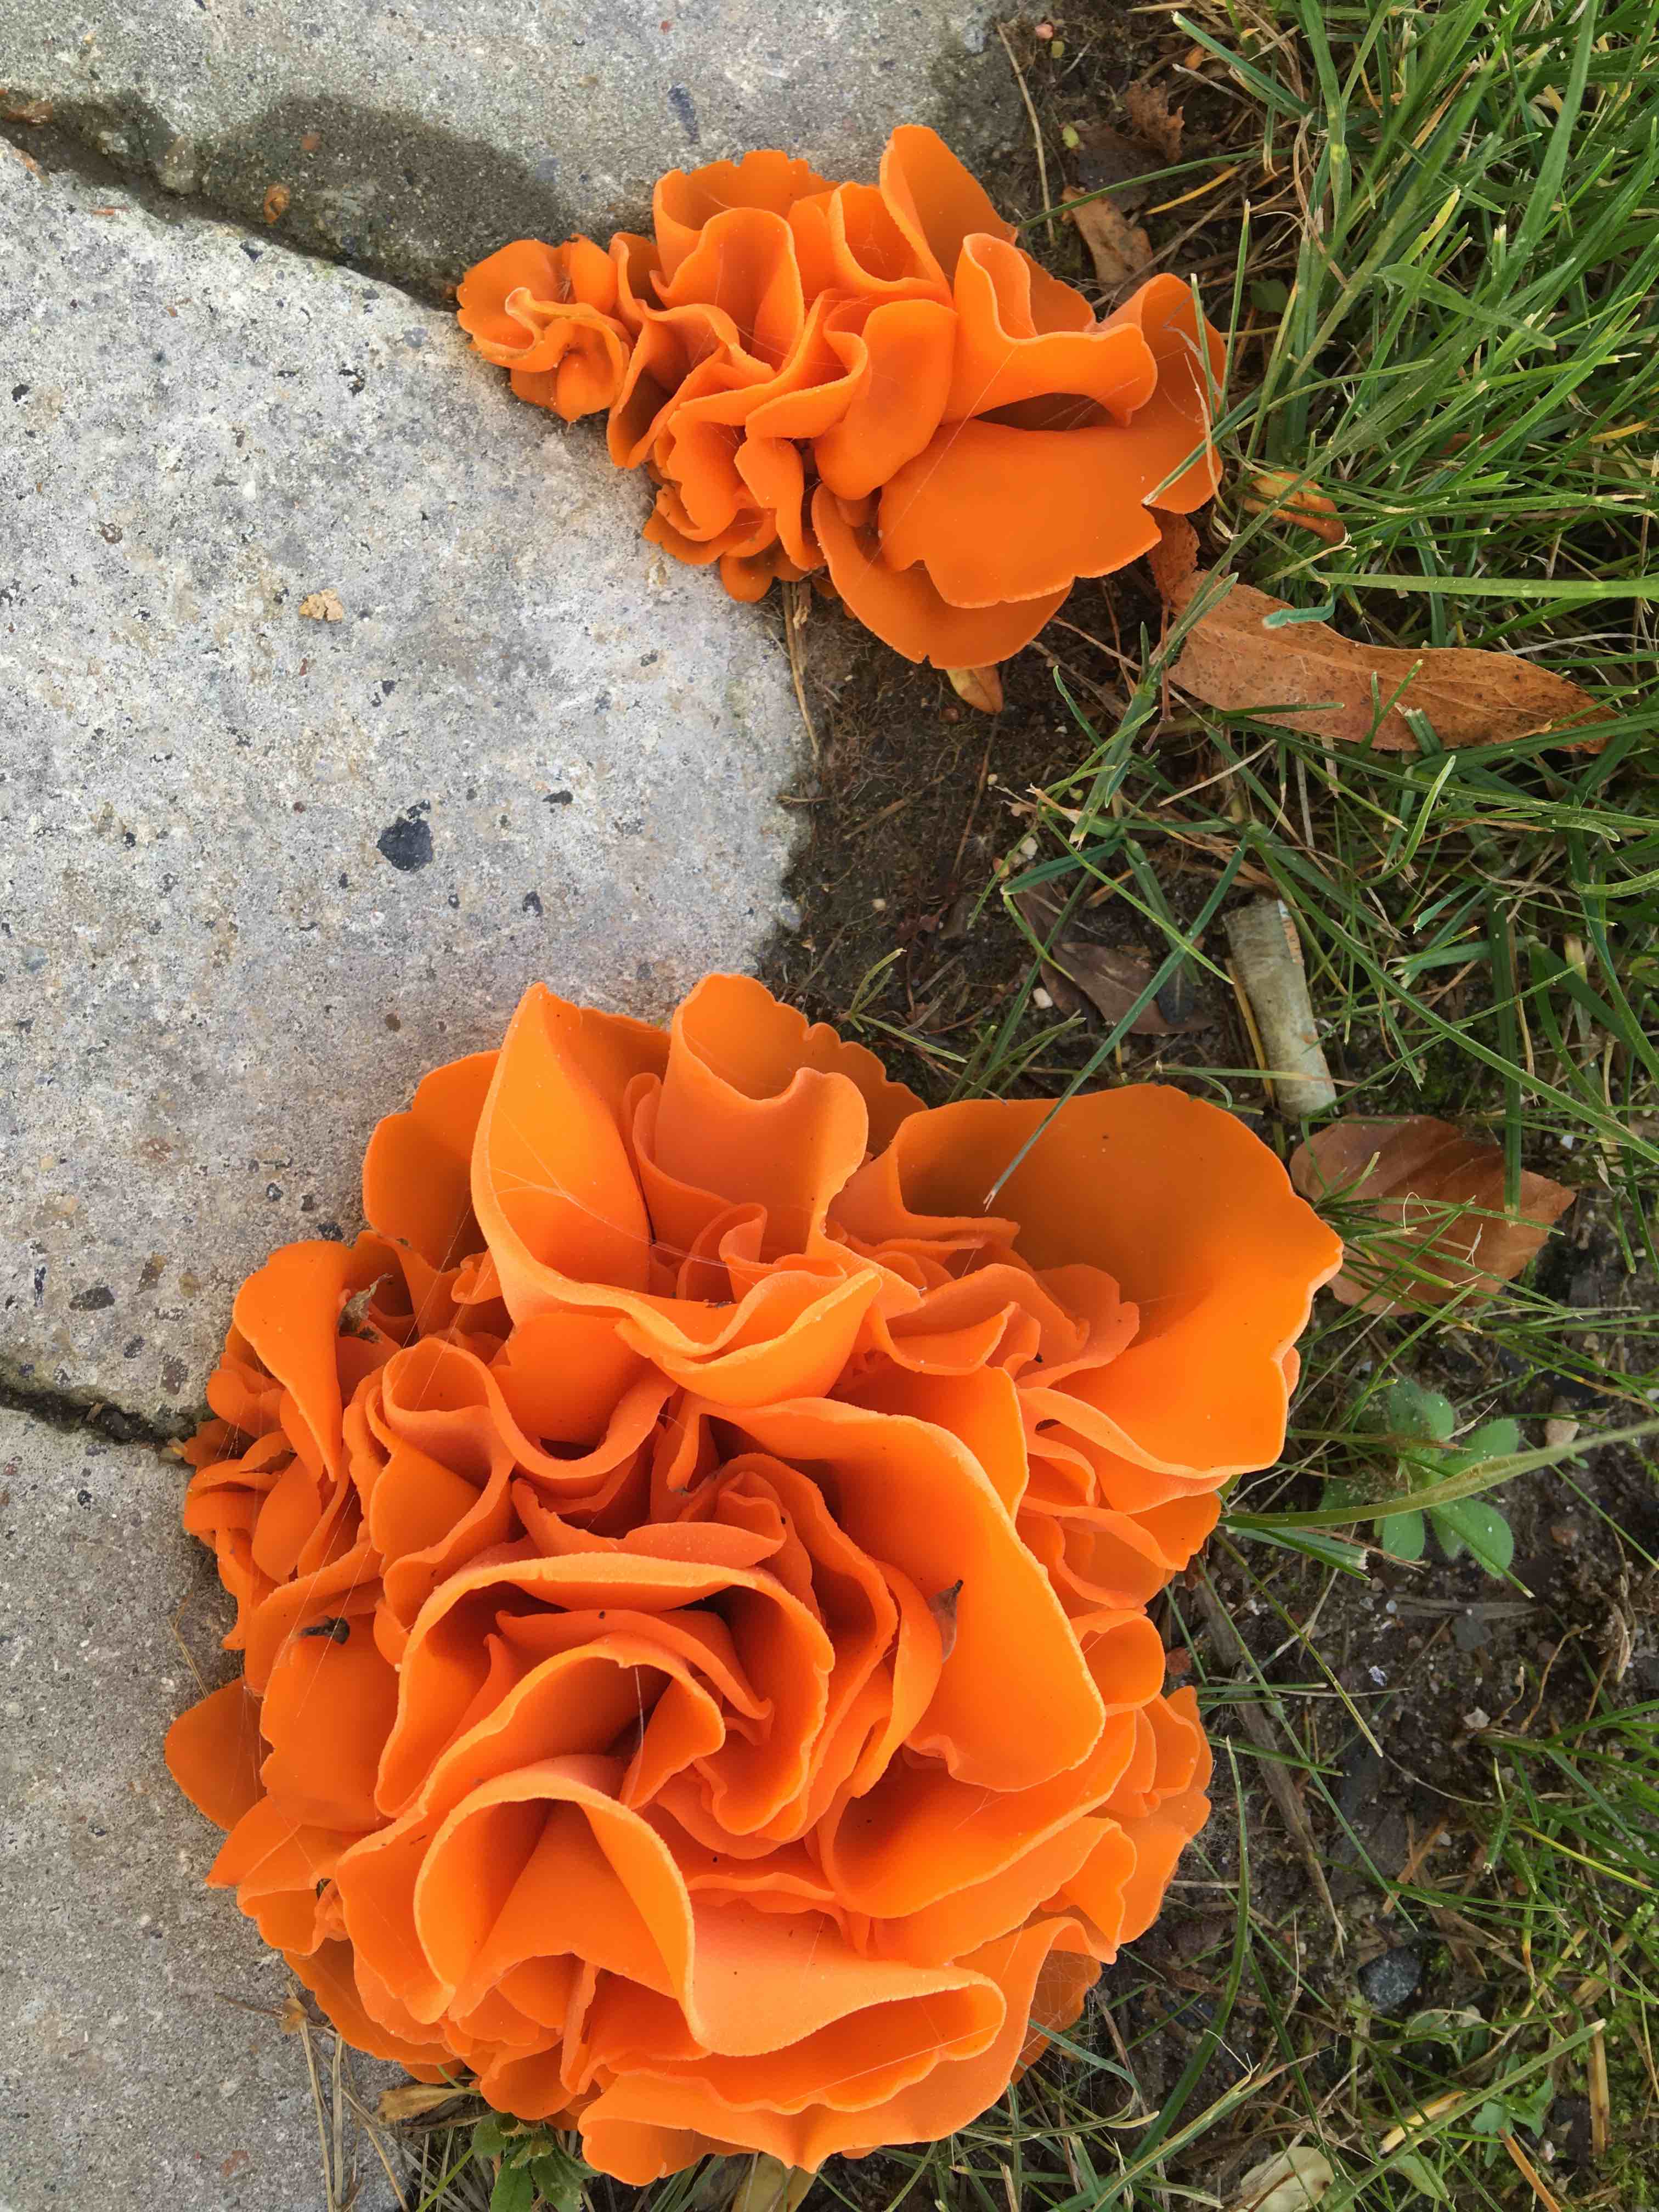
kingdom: Fungi
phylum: Ascomycota
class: Pezizomycetes
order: Pezizales
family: Pyronemataceae
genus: Aleuria
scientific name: Aleuria aurantia
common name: almindelig orangebæger
